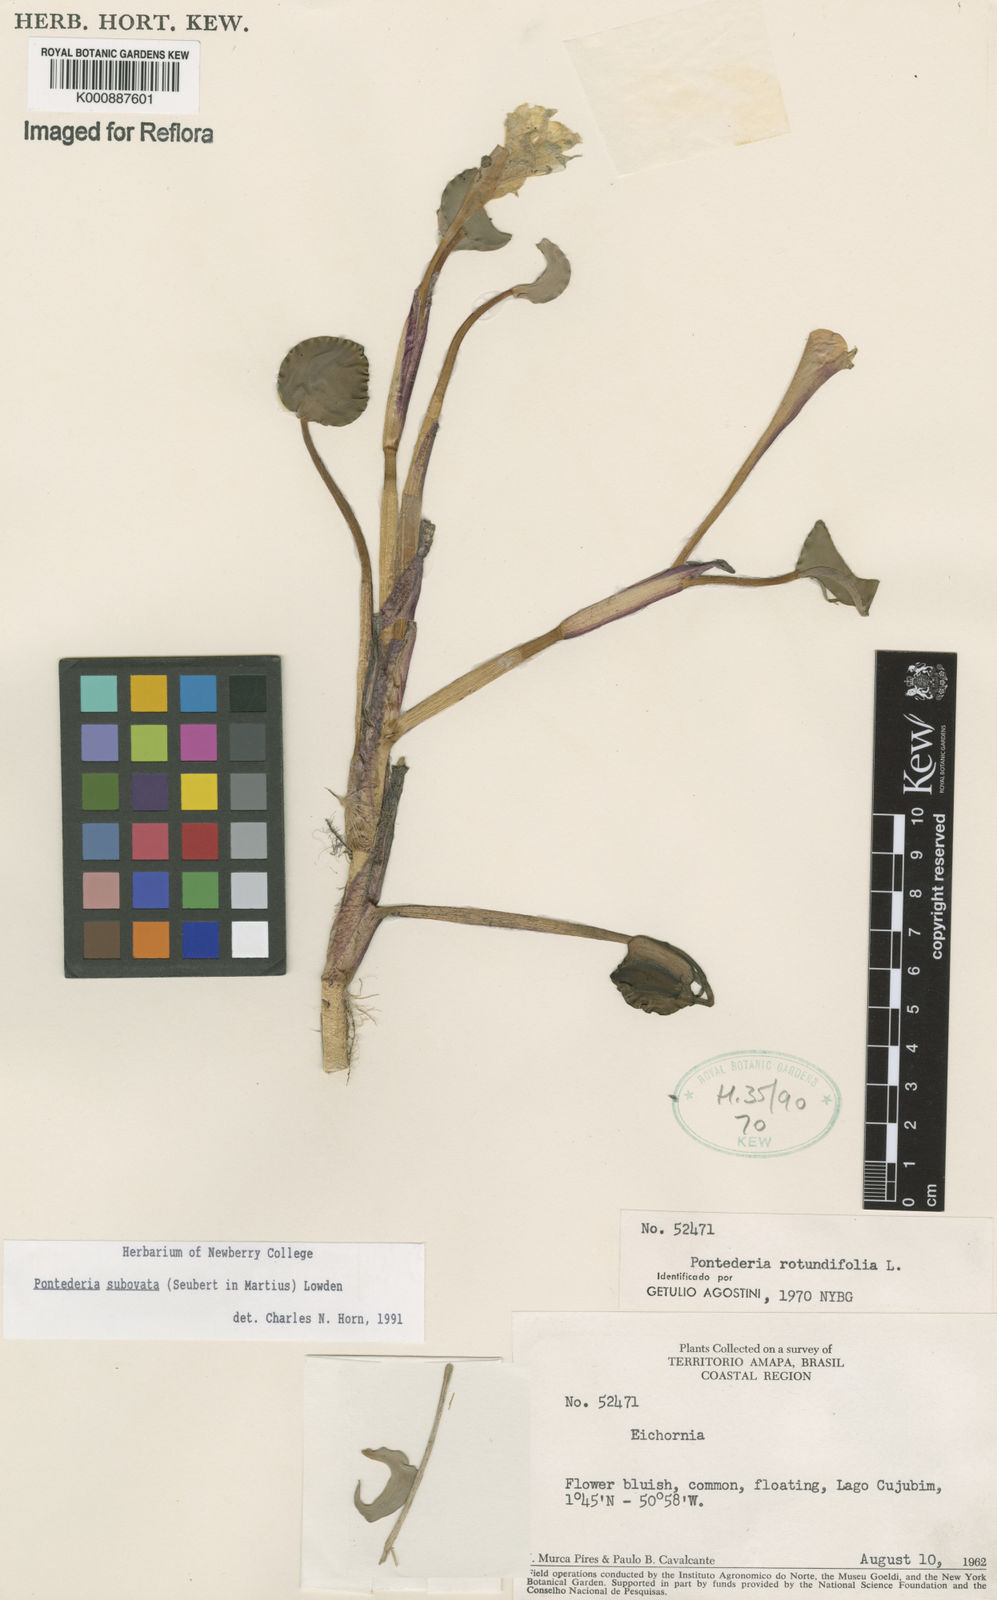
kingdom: Plantae
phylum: Tracheophyta
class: Liliopsida
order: Commelinales
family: Pontederiaceae
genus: Pontederia
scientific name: Pontederia subovata
